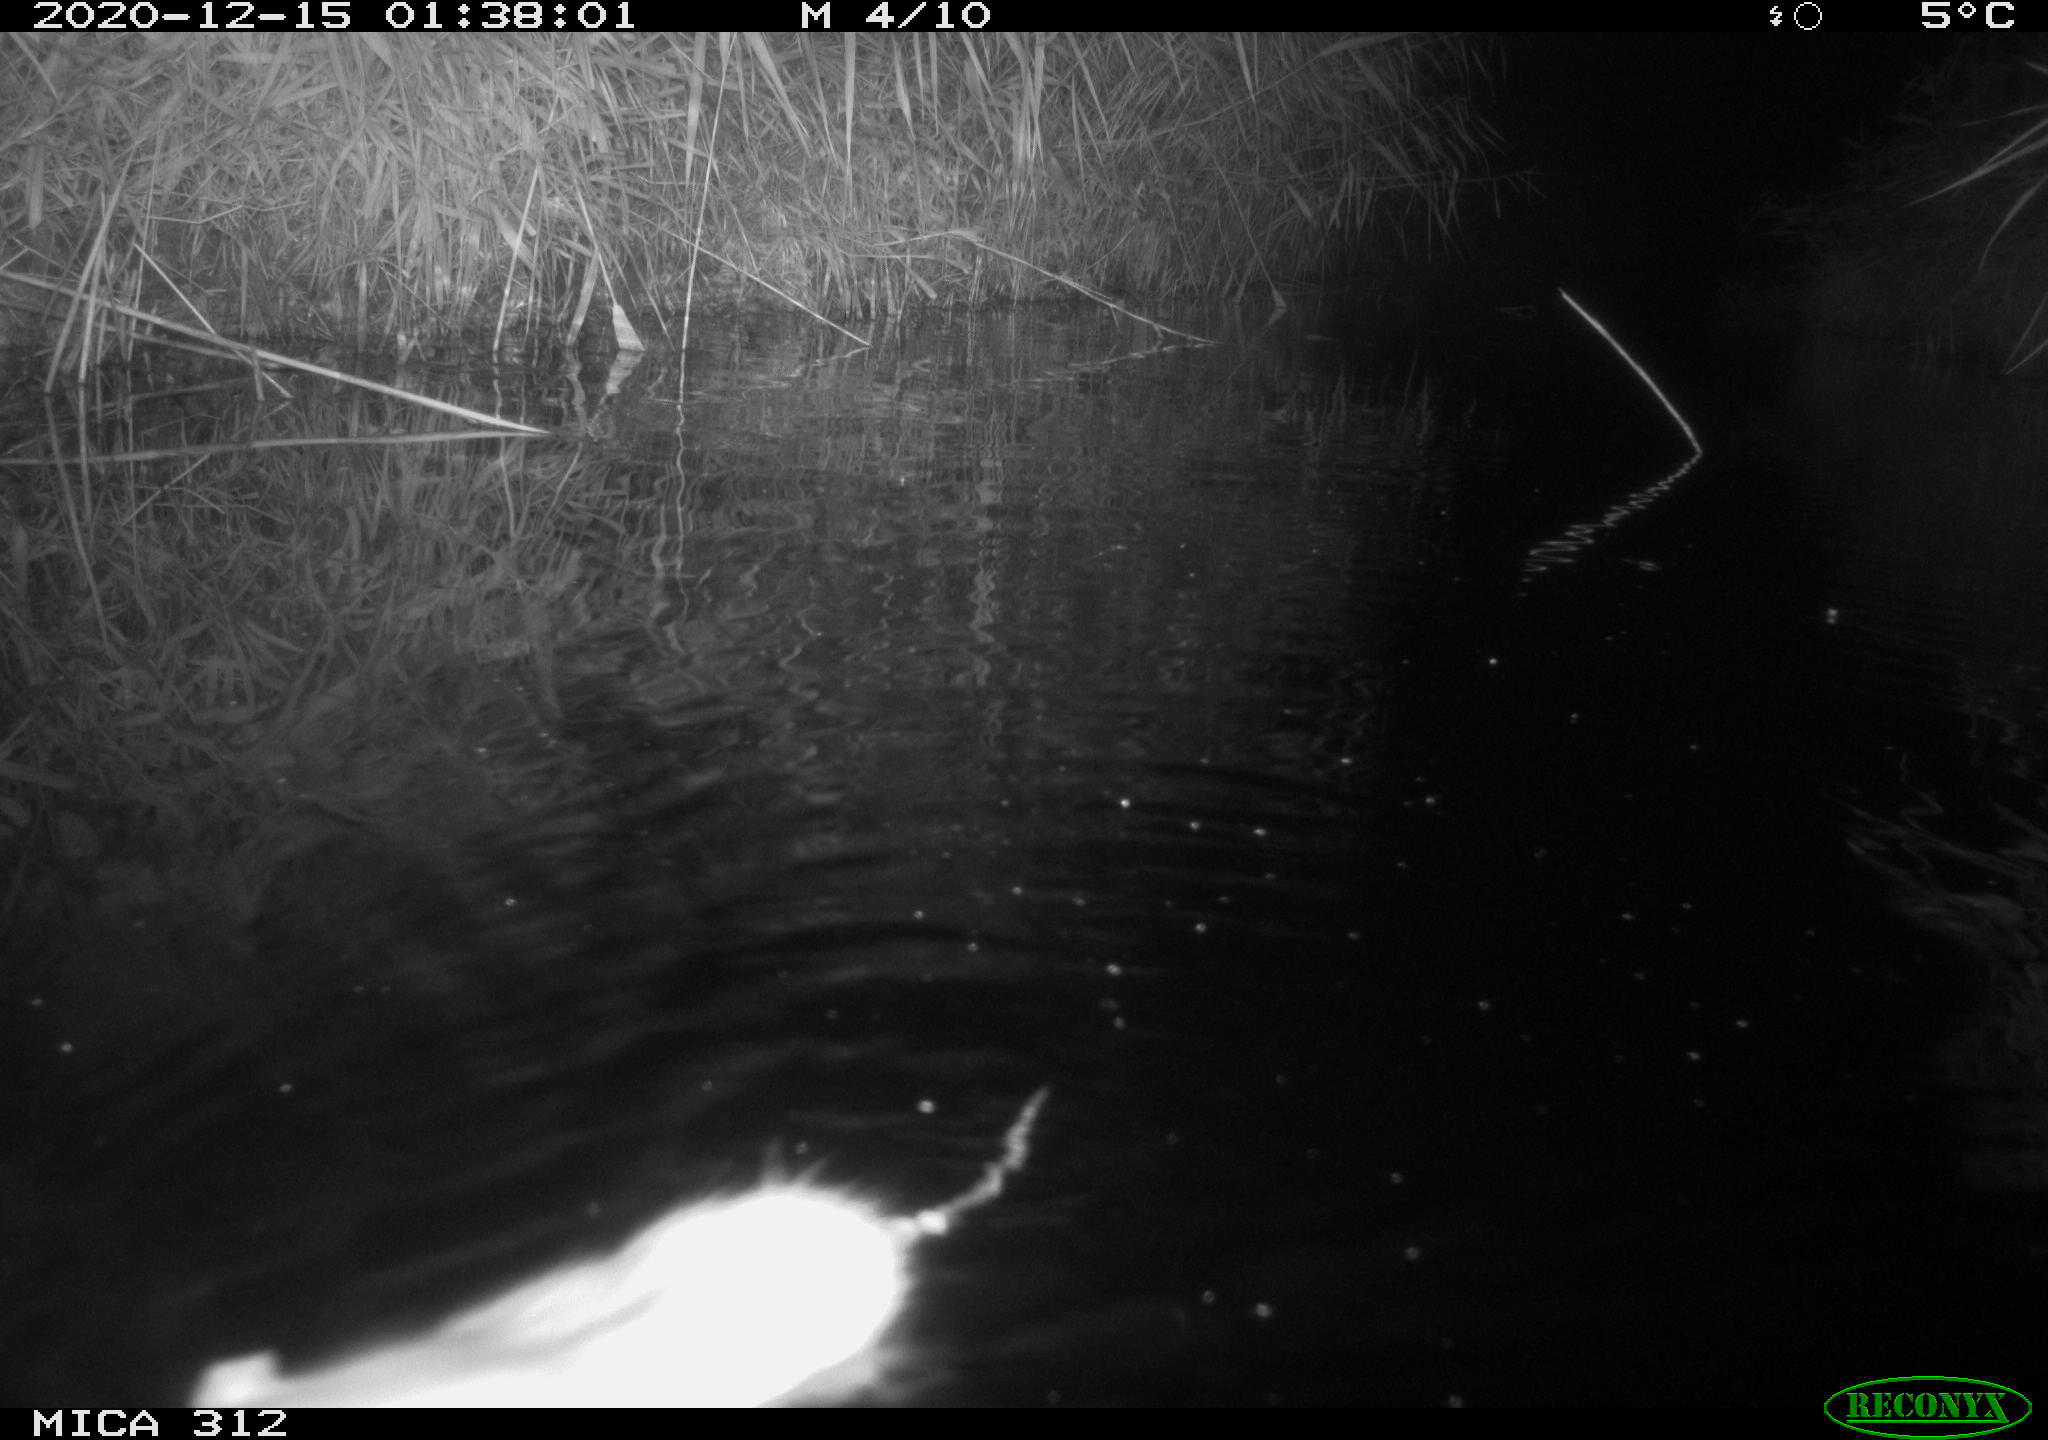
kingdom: Animalia
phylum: Chordata
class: Mammalia
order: Rodentia
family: Muridae
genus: Rattus
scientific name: Rattus norvegicus
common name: Brown rat
